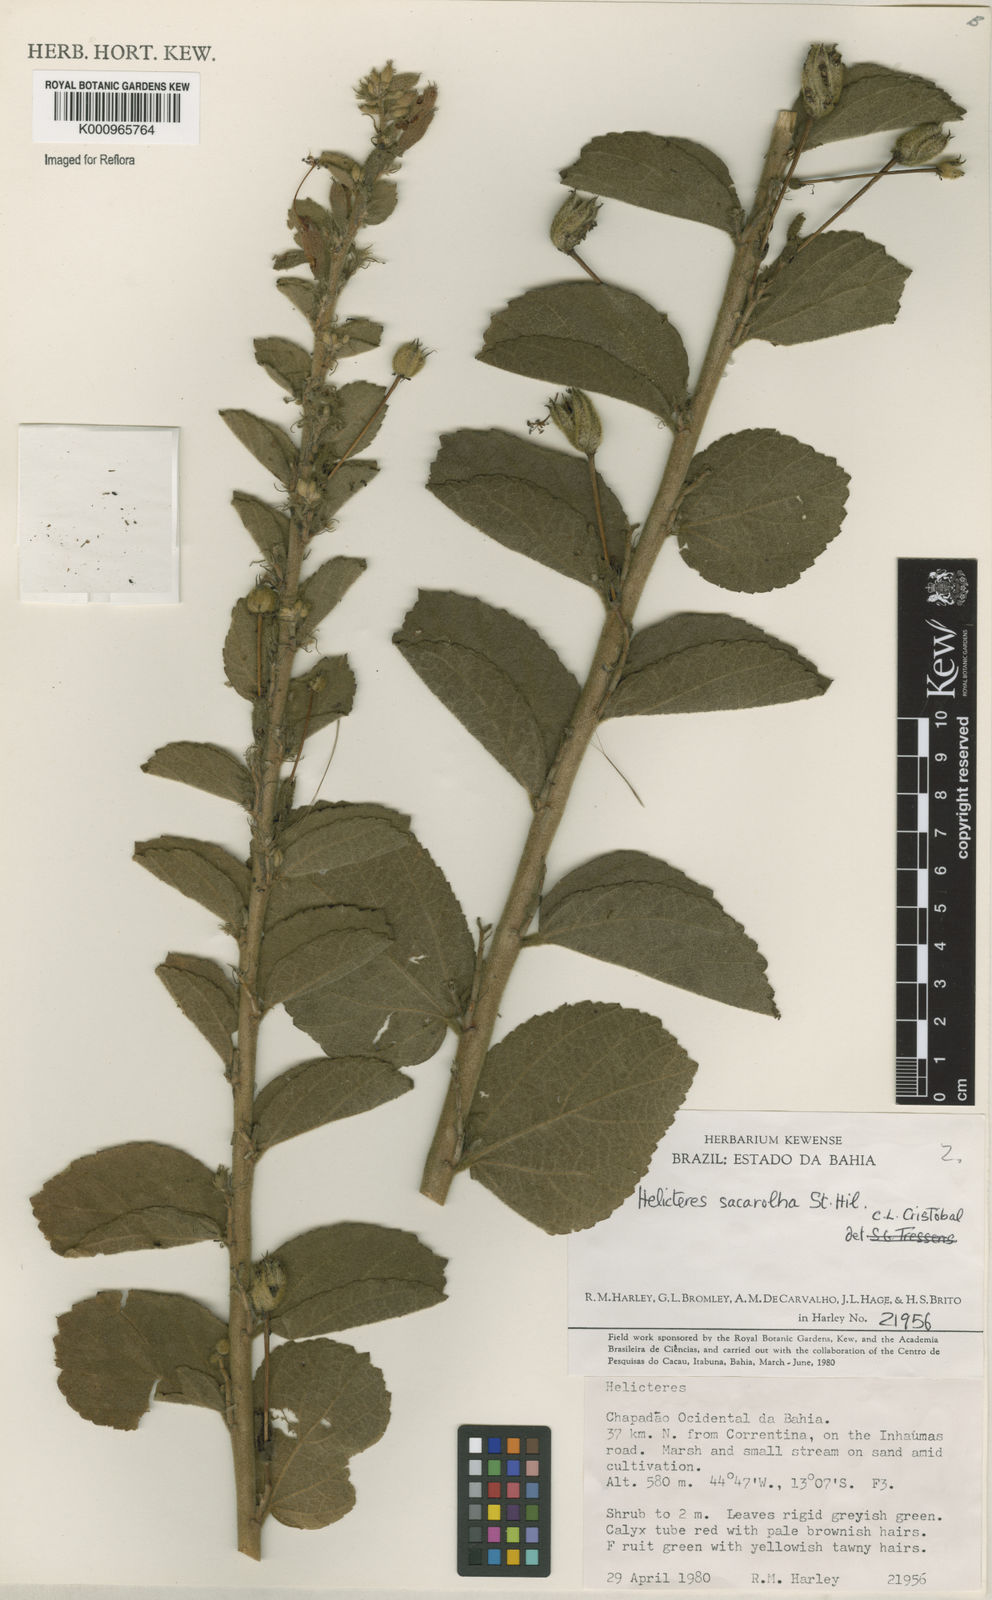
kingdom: Plantae
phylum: Tracheophyta
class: Magnoliopsida
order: Malvales
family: Malvaceae
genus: Helicteres
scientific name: Helicteres
